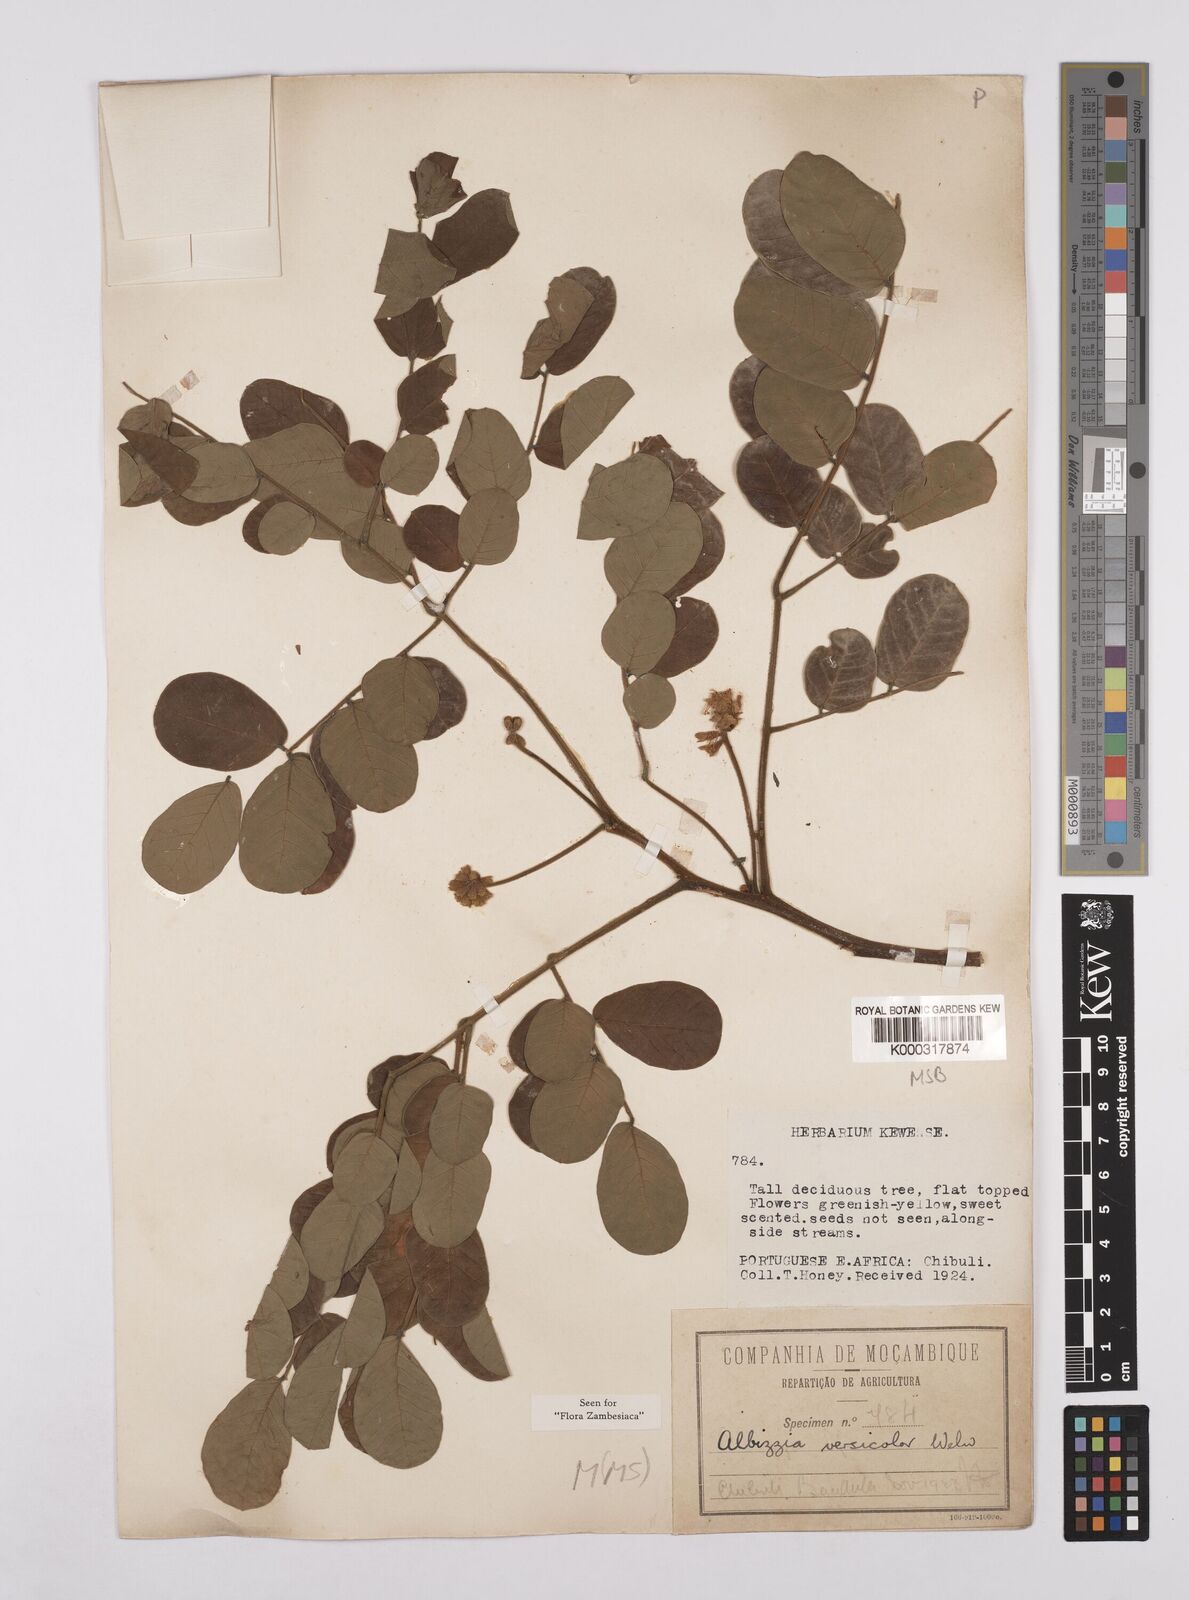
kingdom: Plantae
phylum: Tracheophyta
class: Magnoliopsida
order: Fabales
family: Fabaceae
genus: Albizia
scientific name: Albizia versicolor
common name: Poisonpod
